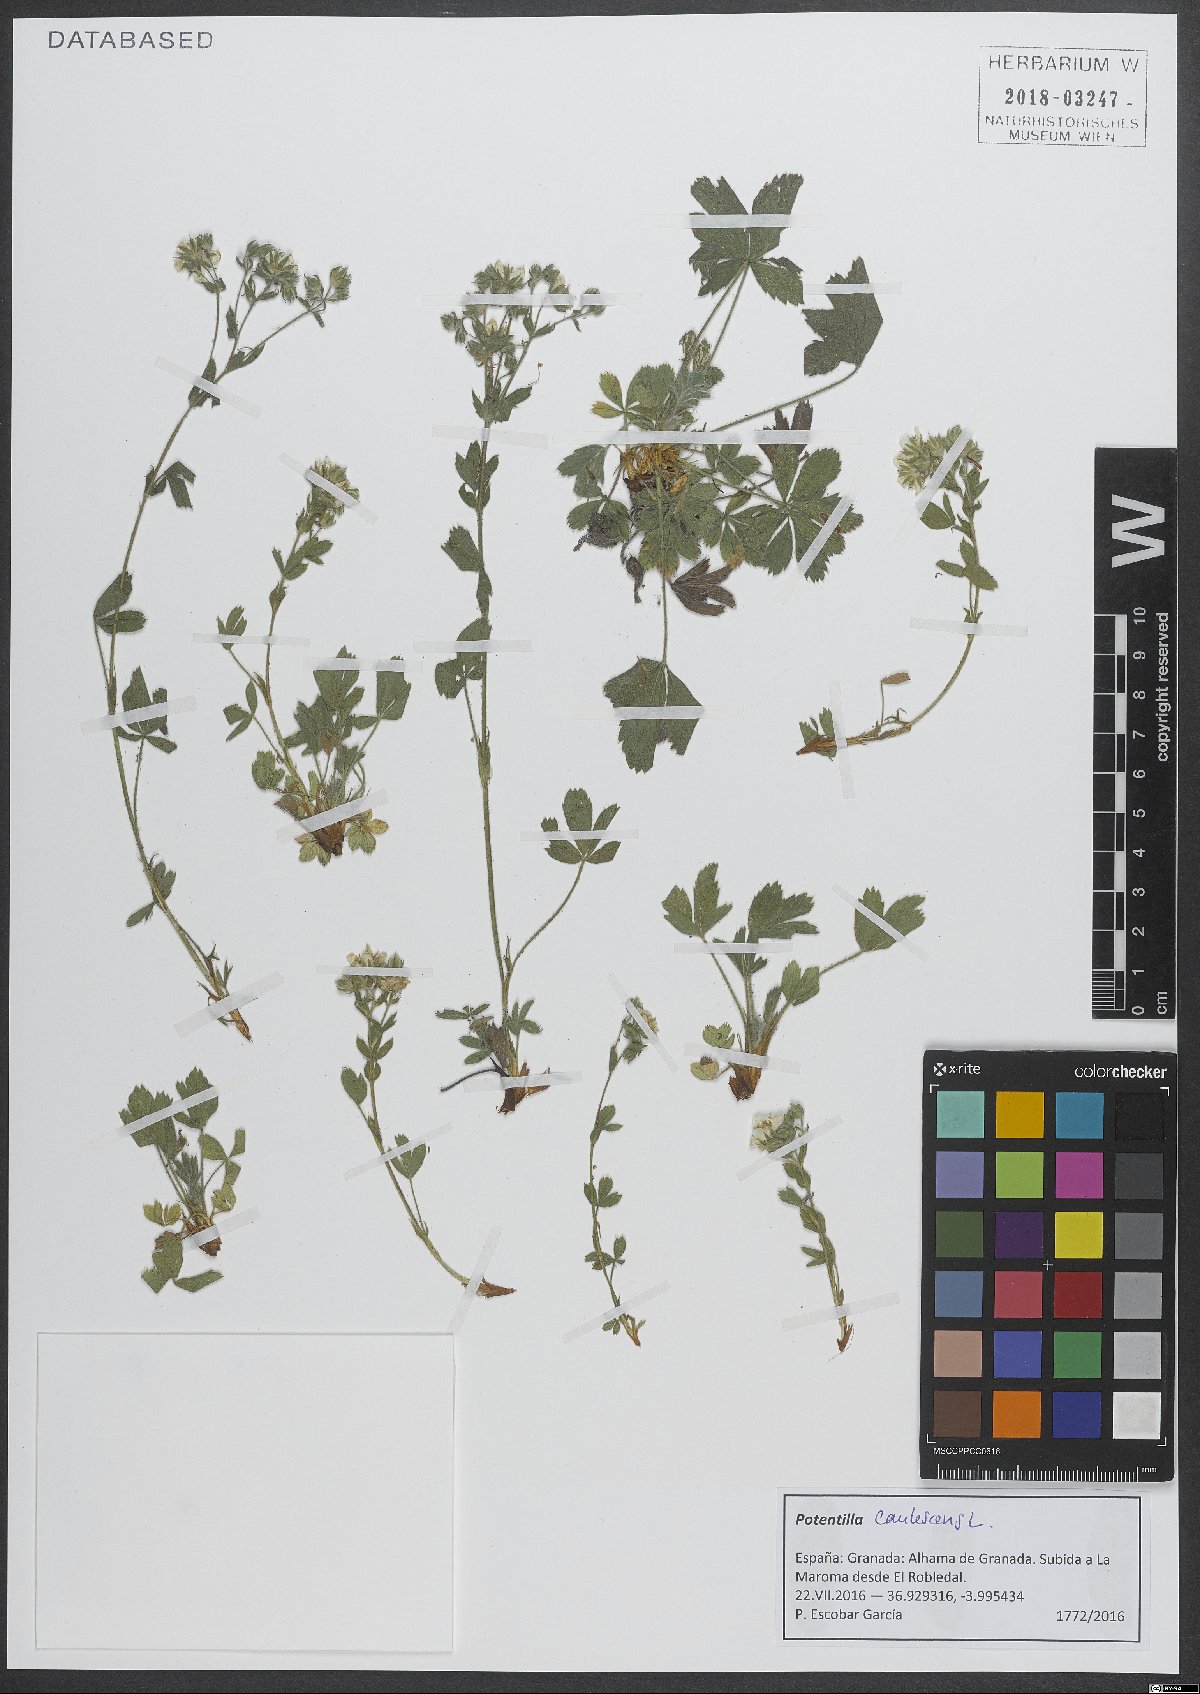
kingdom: Plantae
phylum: Tracheophyta
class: Magnoliopsida
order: Rosales
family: Rosaceae
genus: Potentilla
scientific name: Potentilla caulescens
